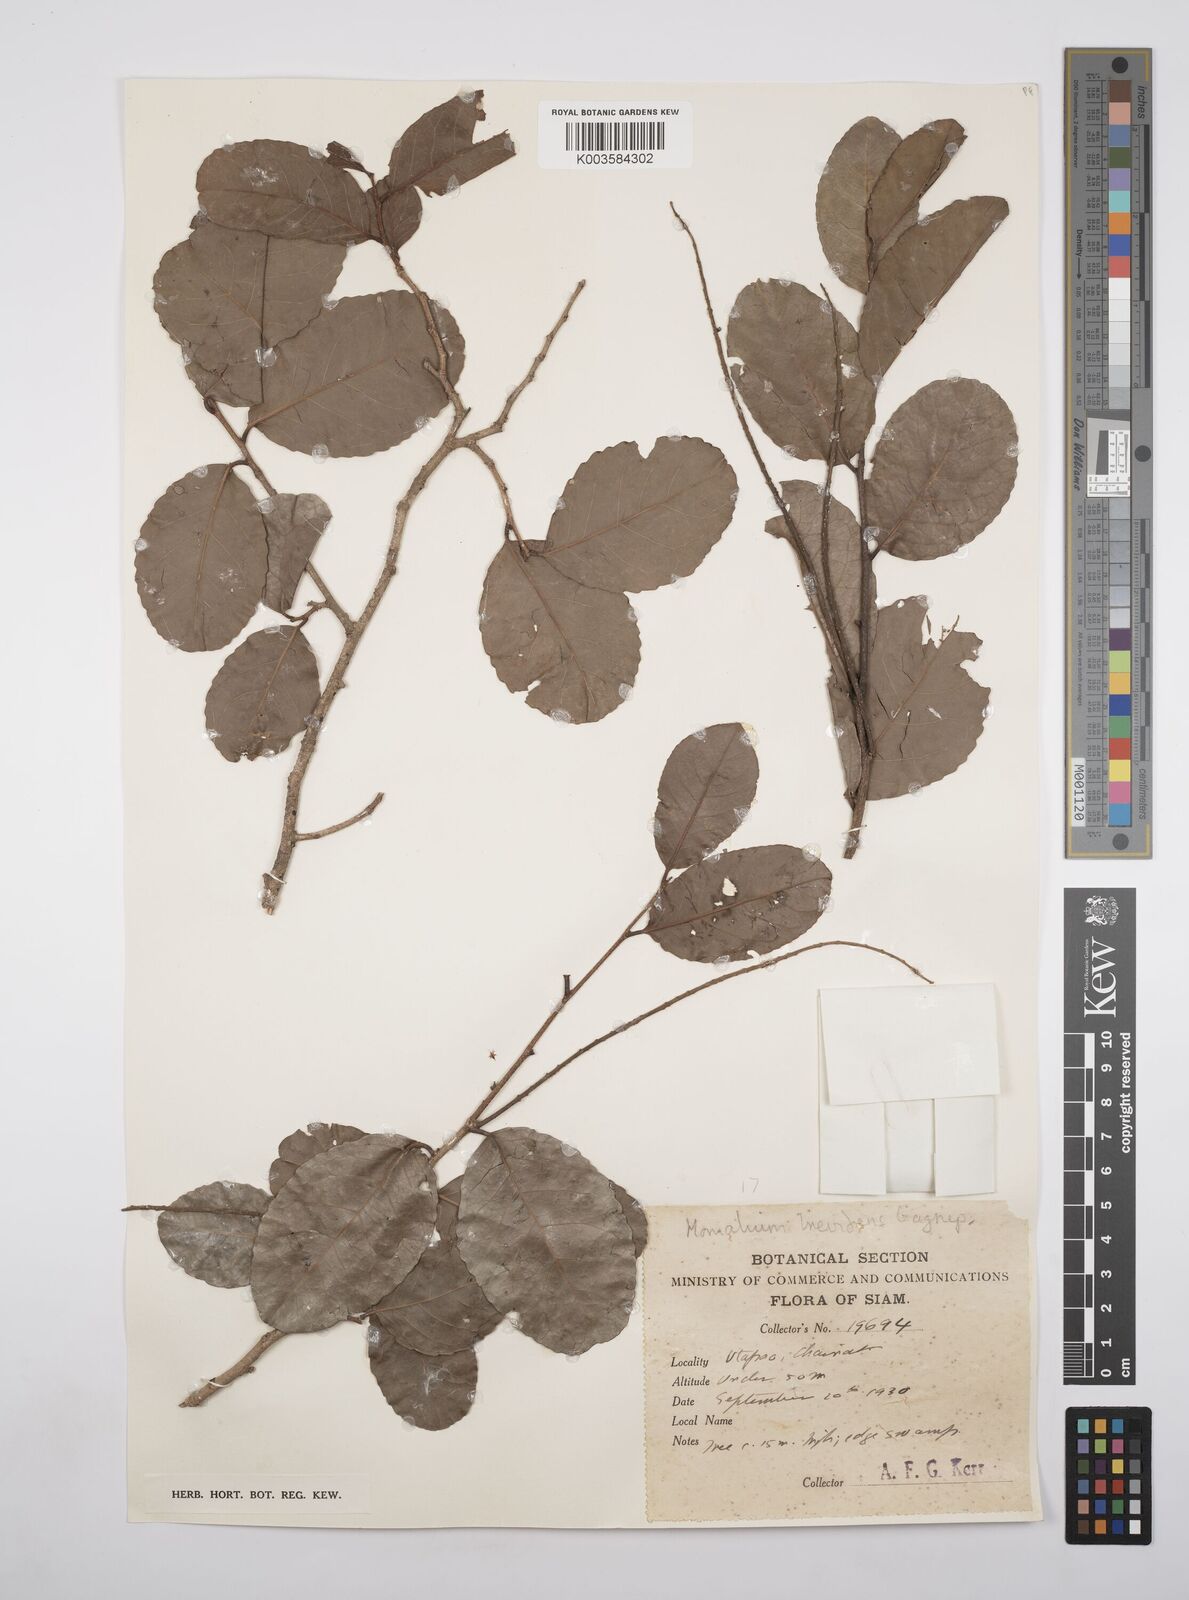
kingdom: Plantae
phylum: Tracheophyta
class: Magnoliopsida
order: Malpighiales
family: Salicaceae
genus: Homalium
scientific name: Homalium brevidens
